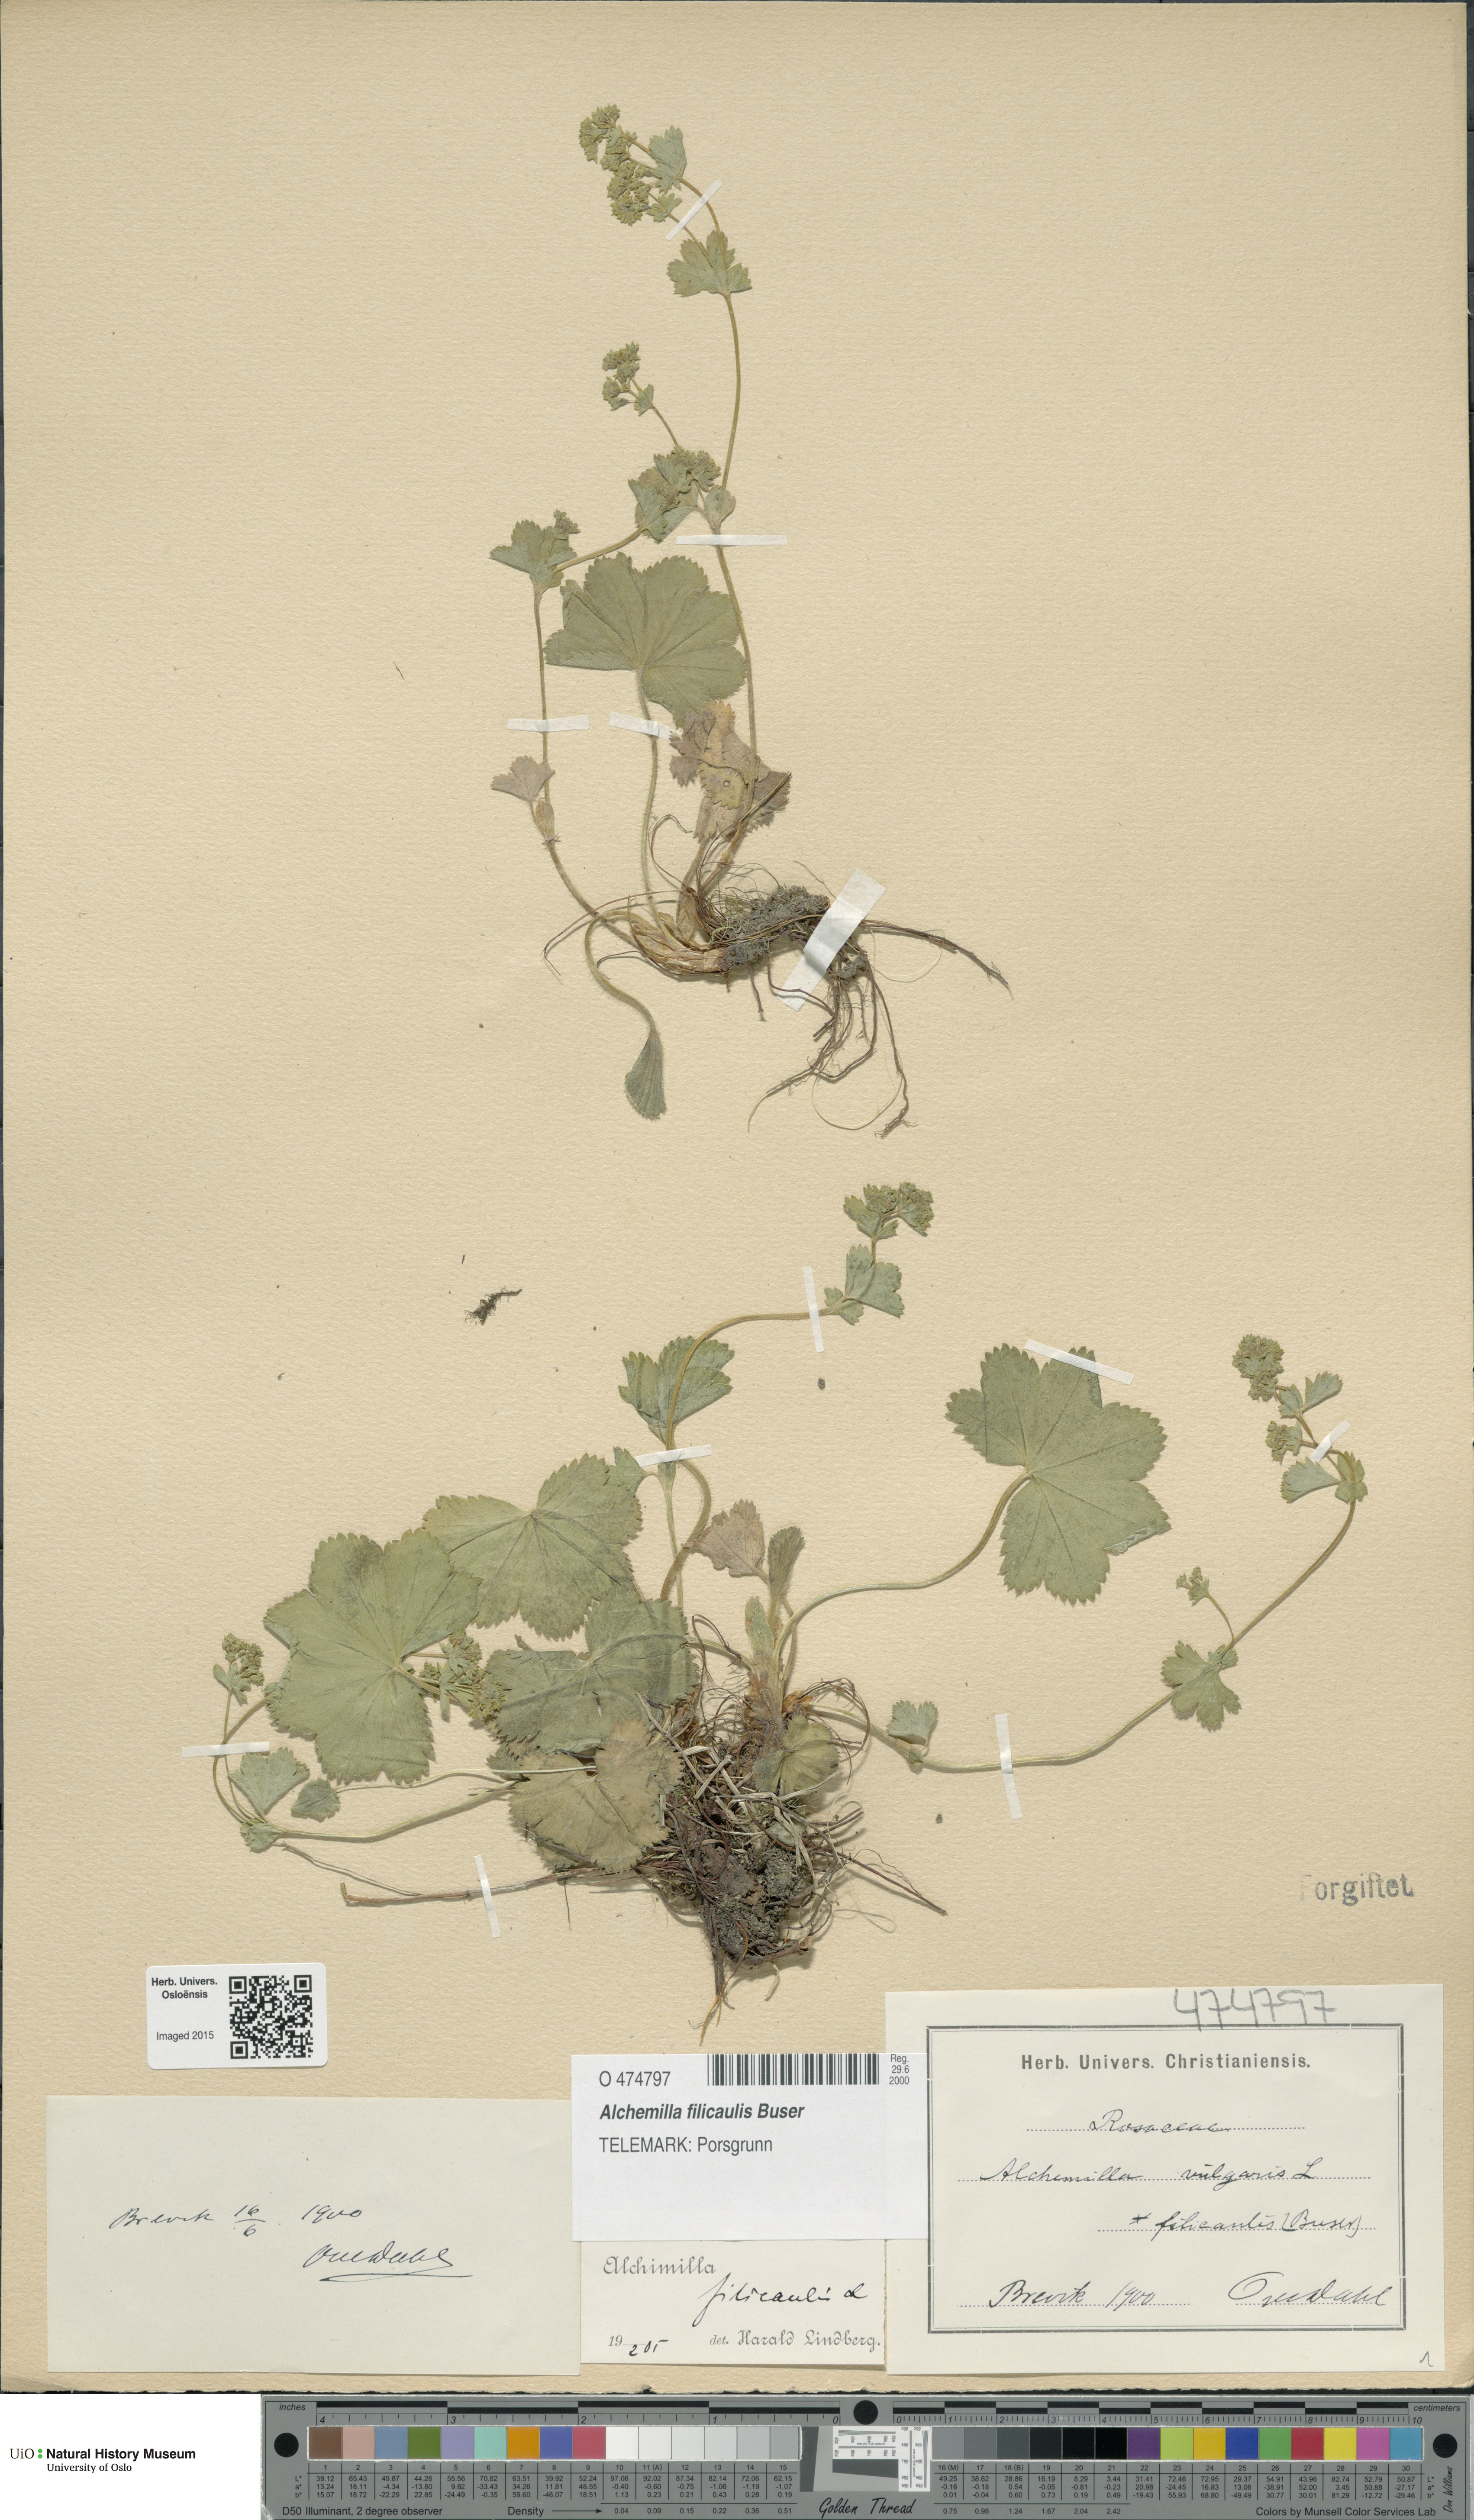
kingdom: Plantae
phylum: Tracheophyta
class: Magnoliopsida
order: Rosales
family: Rosaceae
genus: Alchemilla
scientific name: Alchemilla filicaulis
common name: Hairy lady's-mantle
